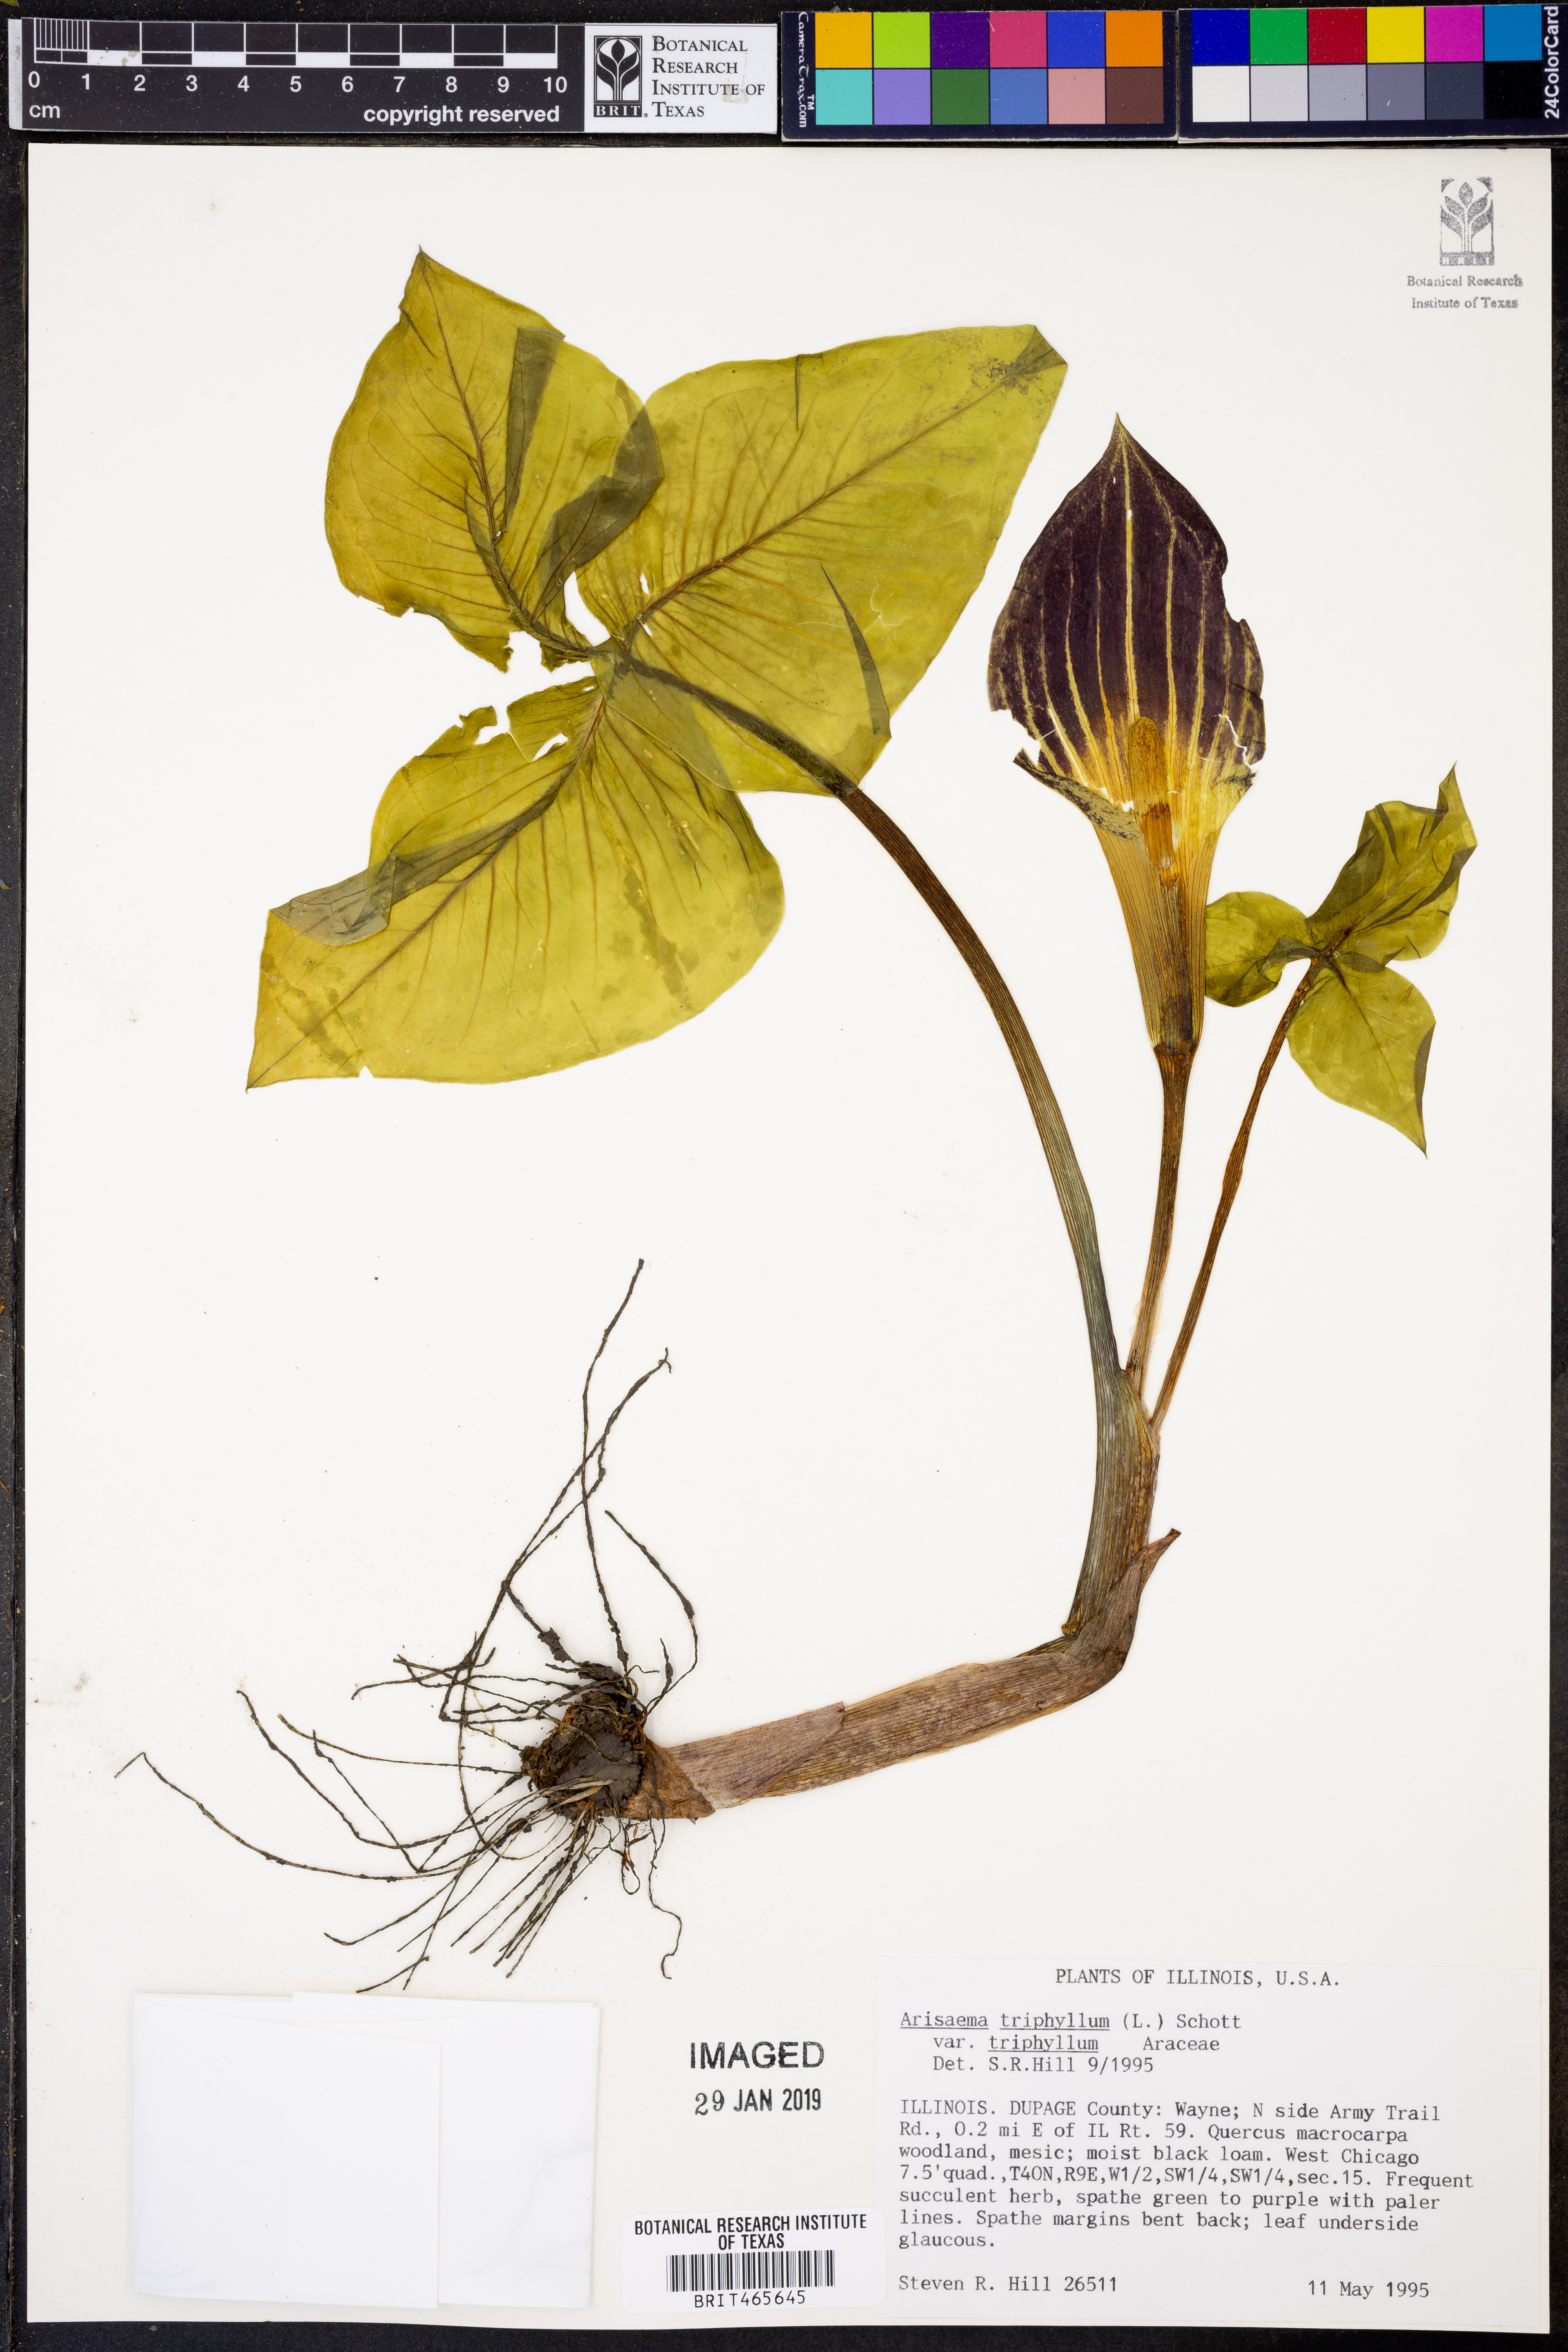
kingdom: Plantae
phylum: Tracheophyta
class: Liliopsida
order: Alismatales
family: Araceae
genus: Arisaema
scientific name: Arisaema triphyllum
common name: Jack-in-the-pulpit
